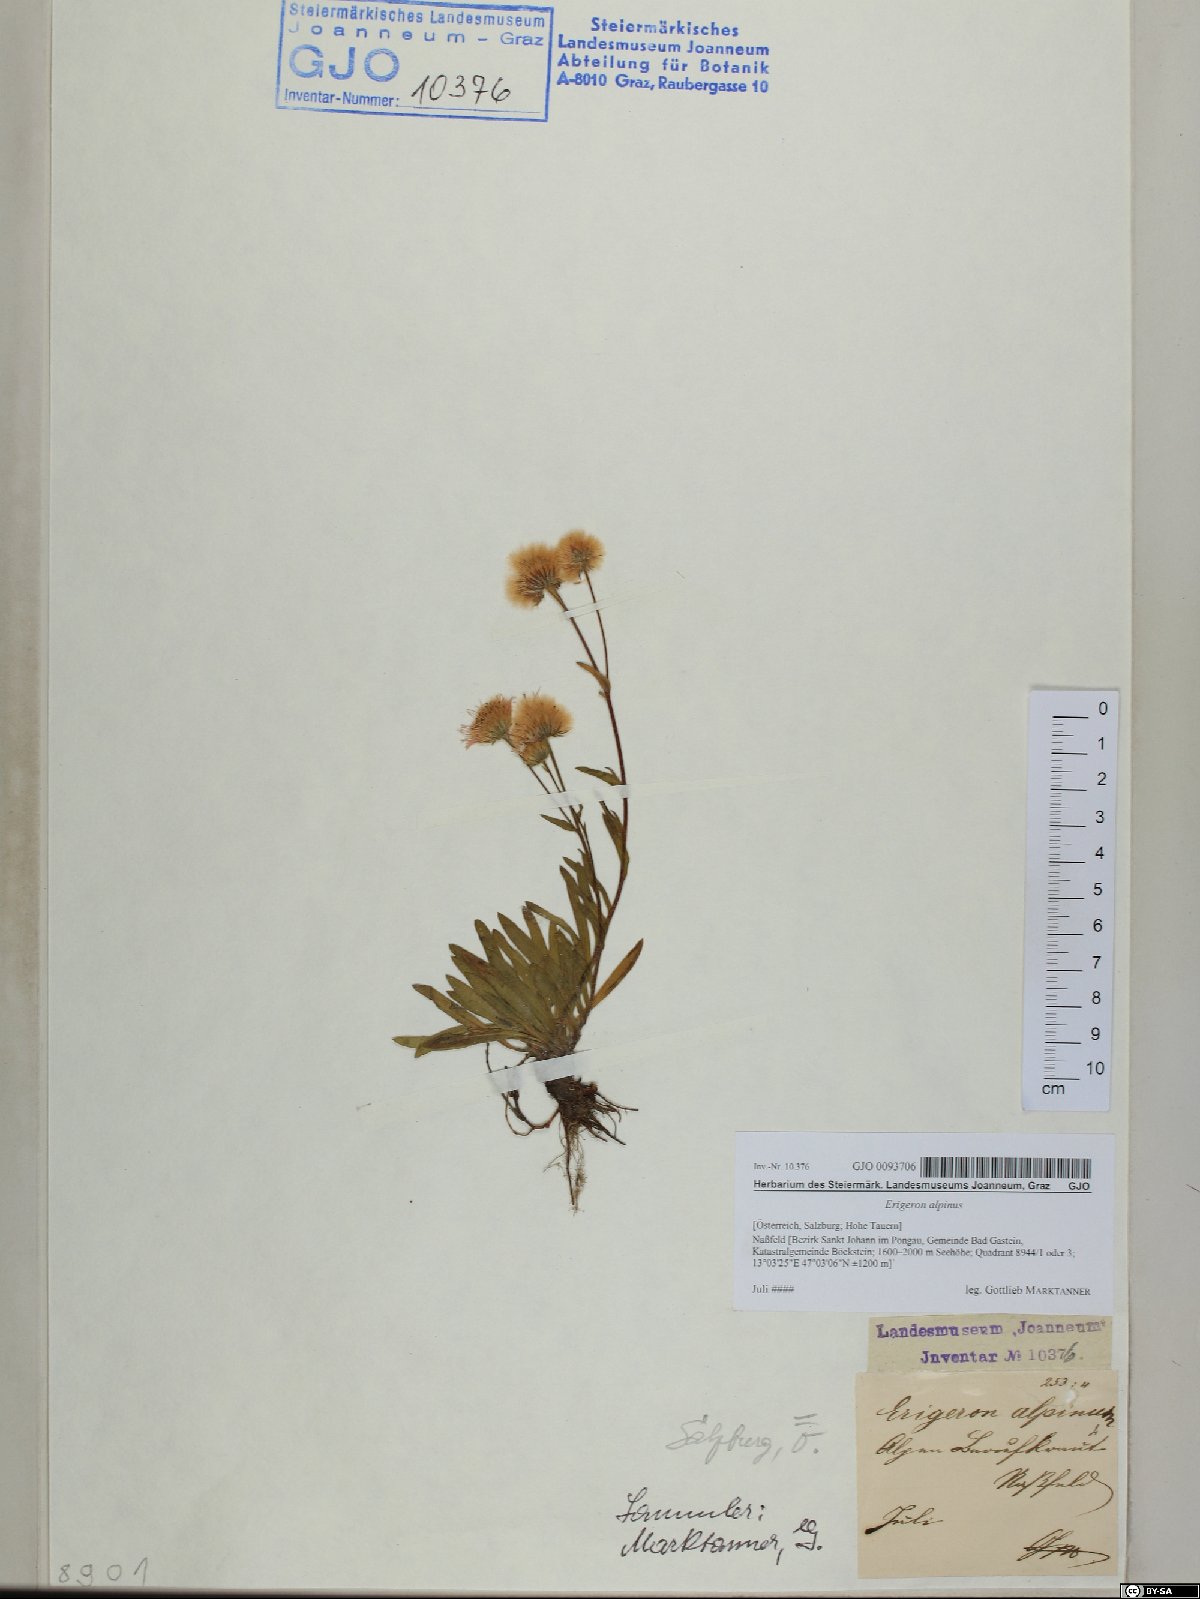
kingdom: Plantae
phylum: Tracheophyta
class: Magnoliopsida
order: Asterales
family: Asteraceae
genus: Erigeron
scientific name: Erigeron alpinus
